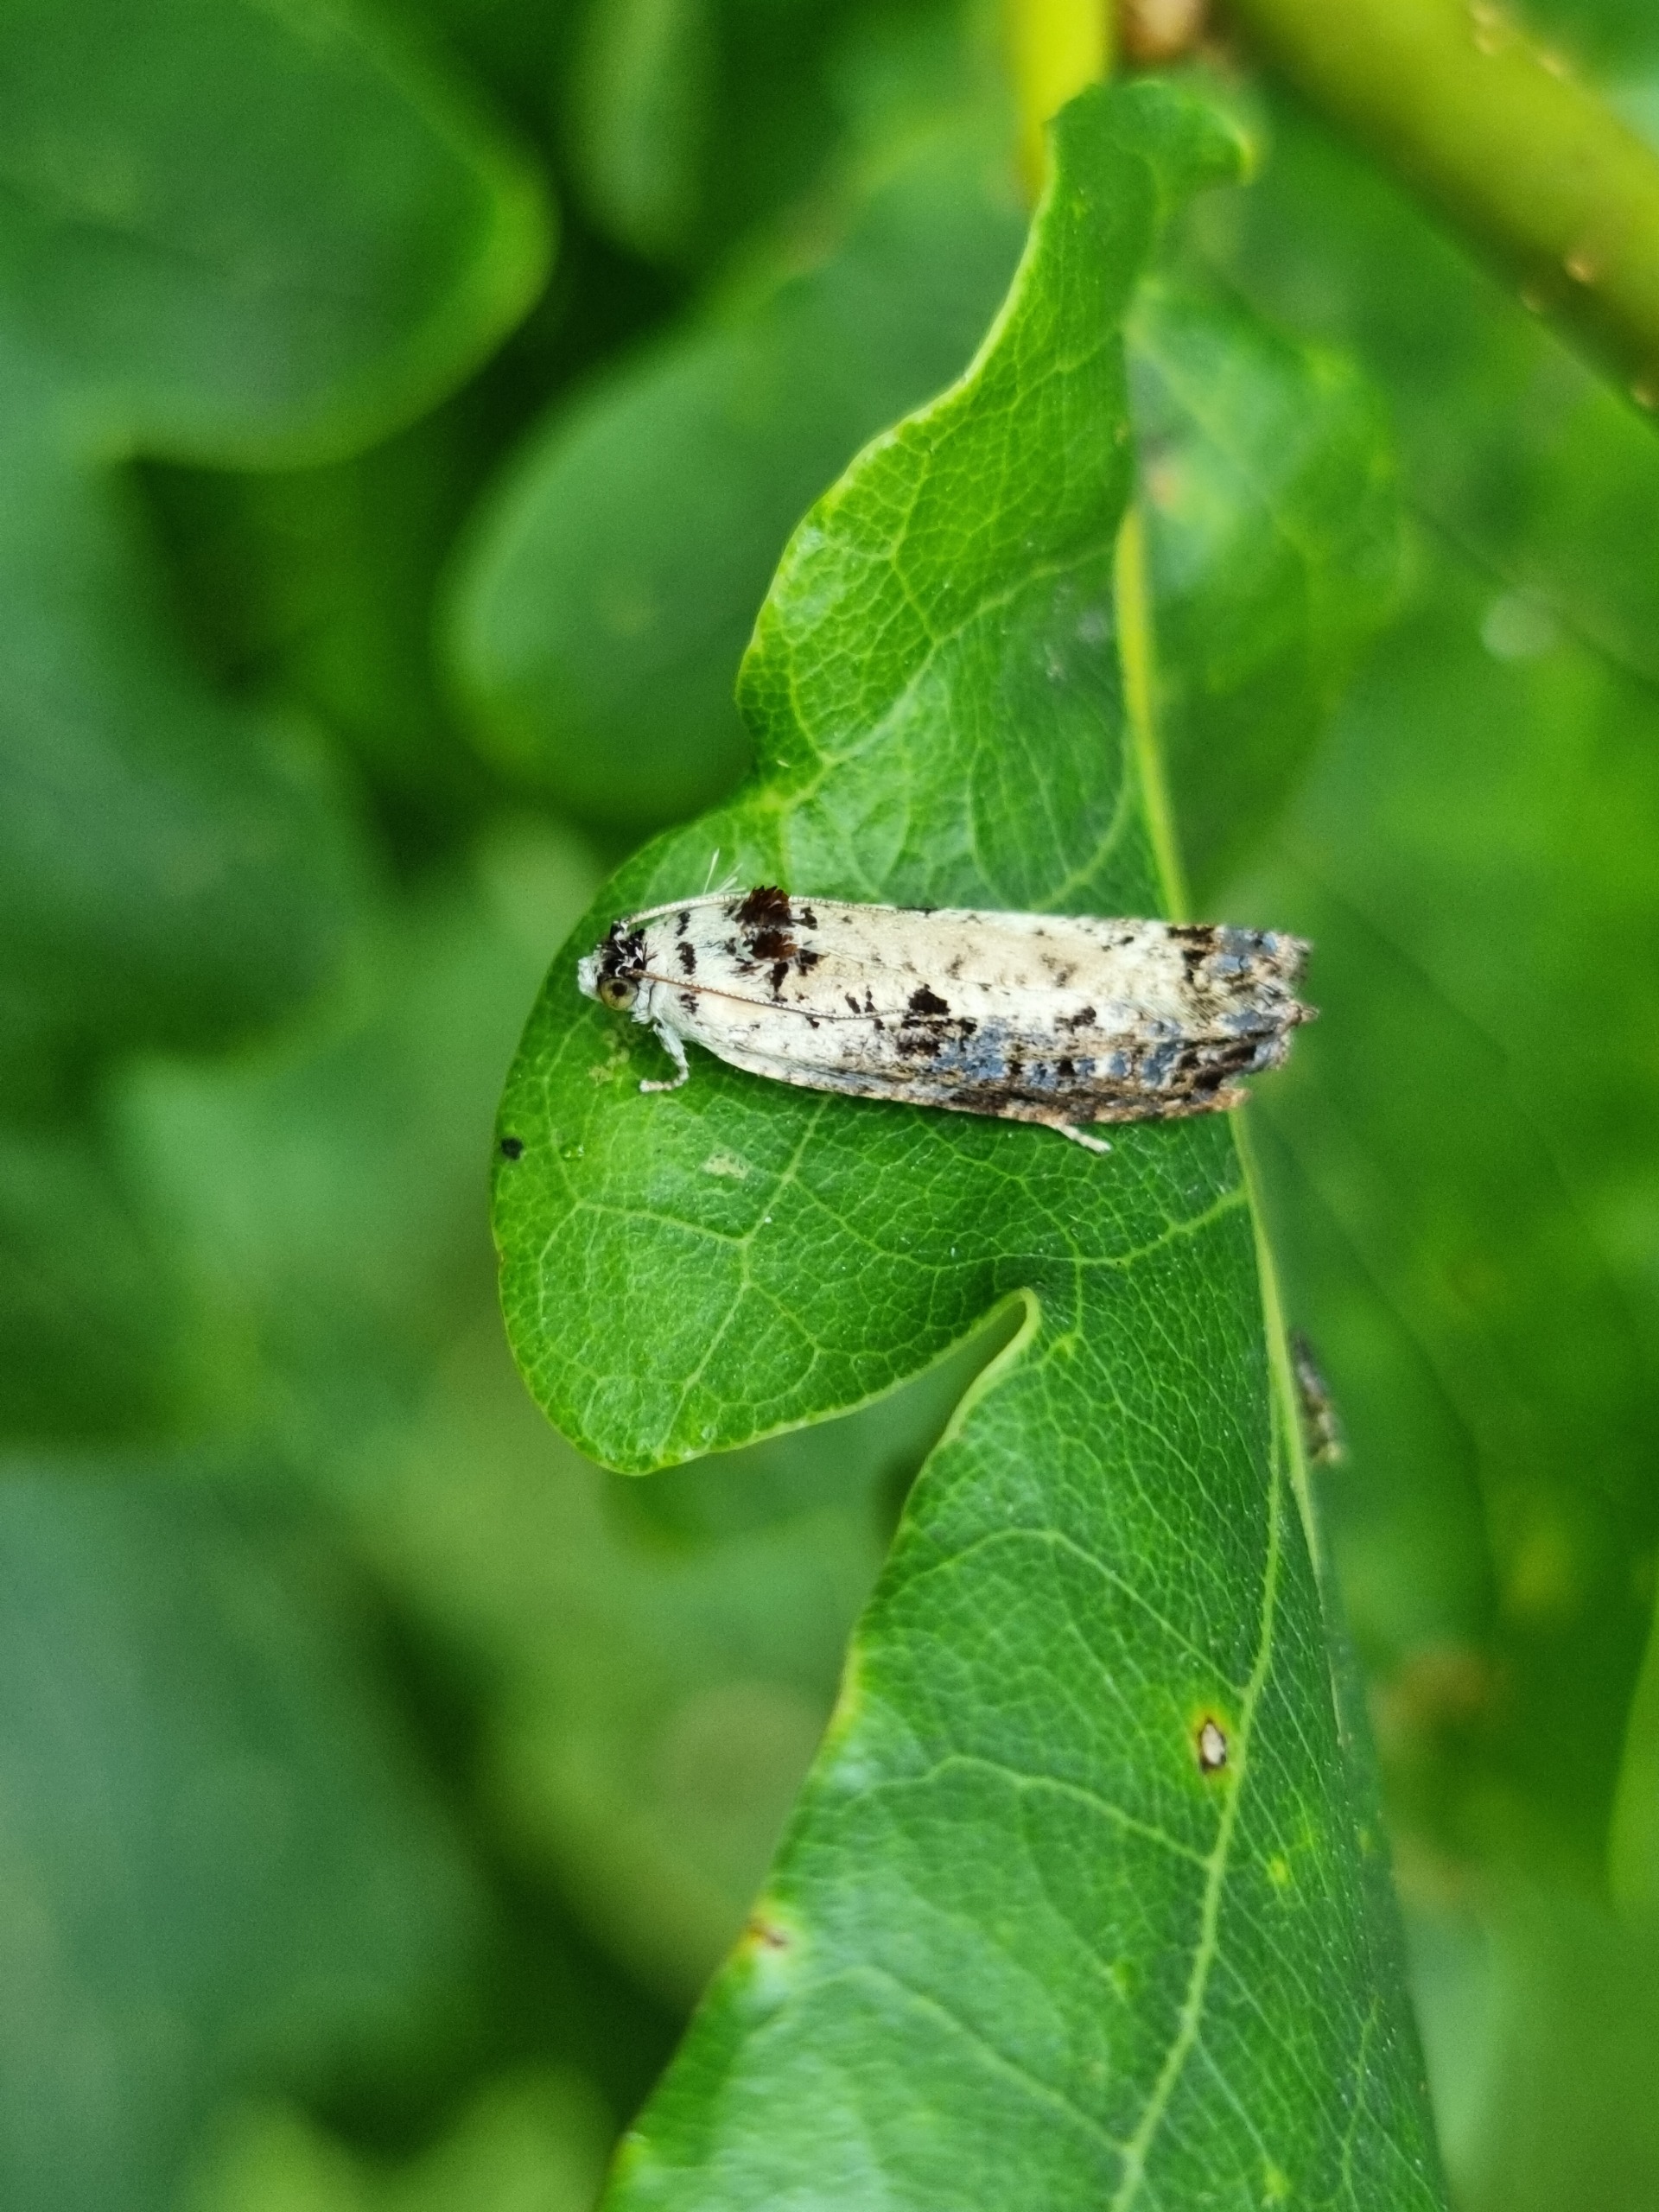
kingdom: Animalia
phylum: Arthropoda
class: Insecta
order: Lepidoptera
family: Tortricidae
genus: Hedya
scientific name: Hedya salicella
